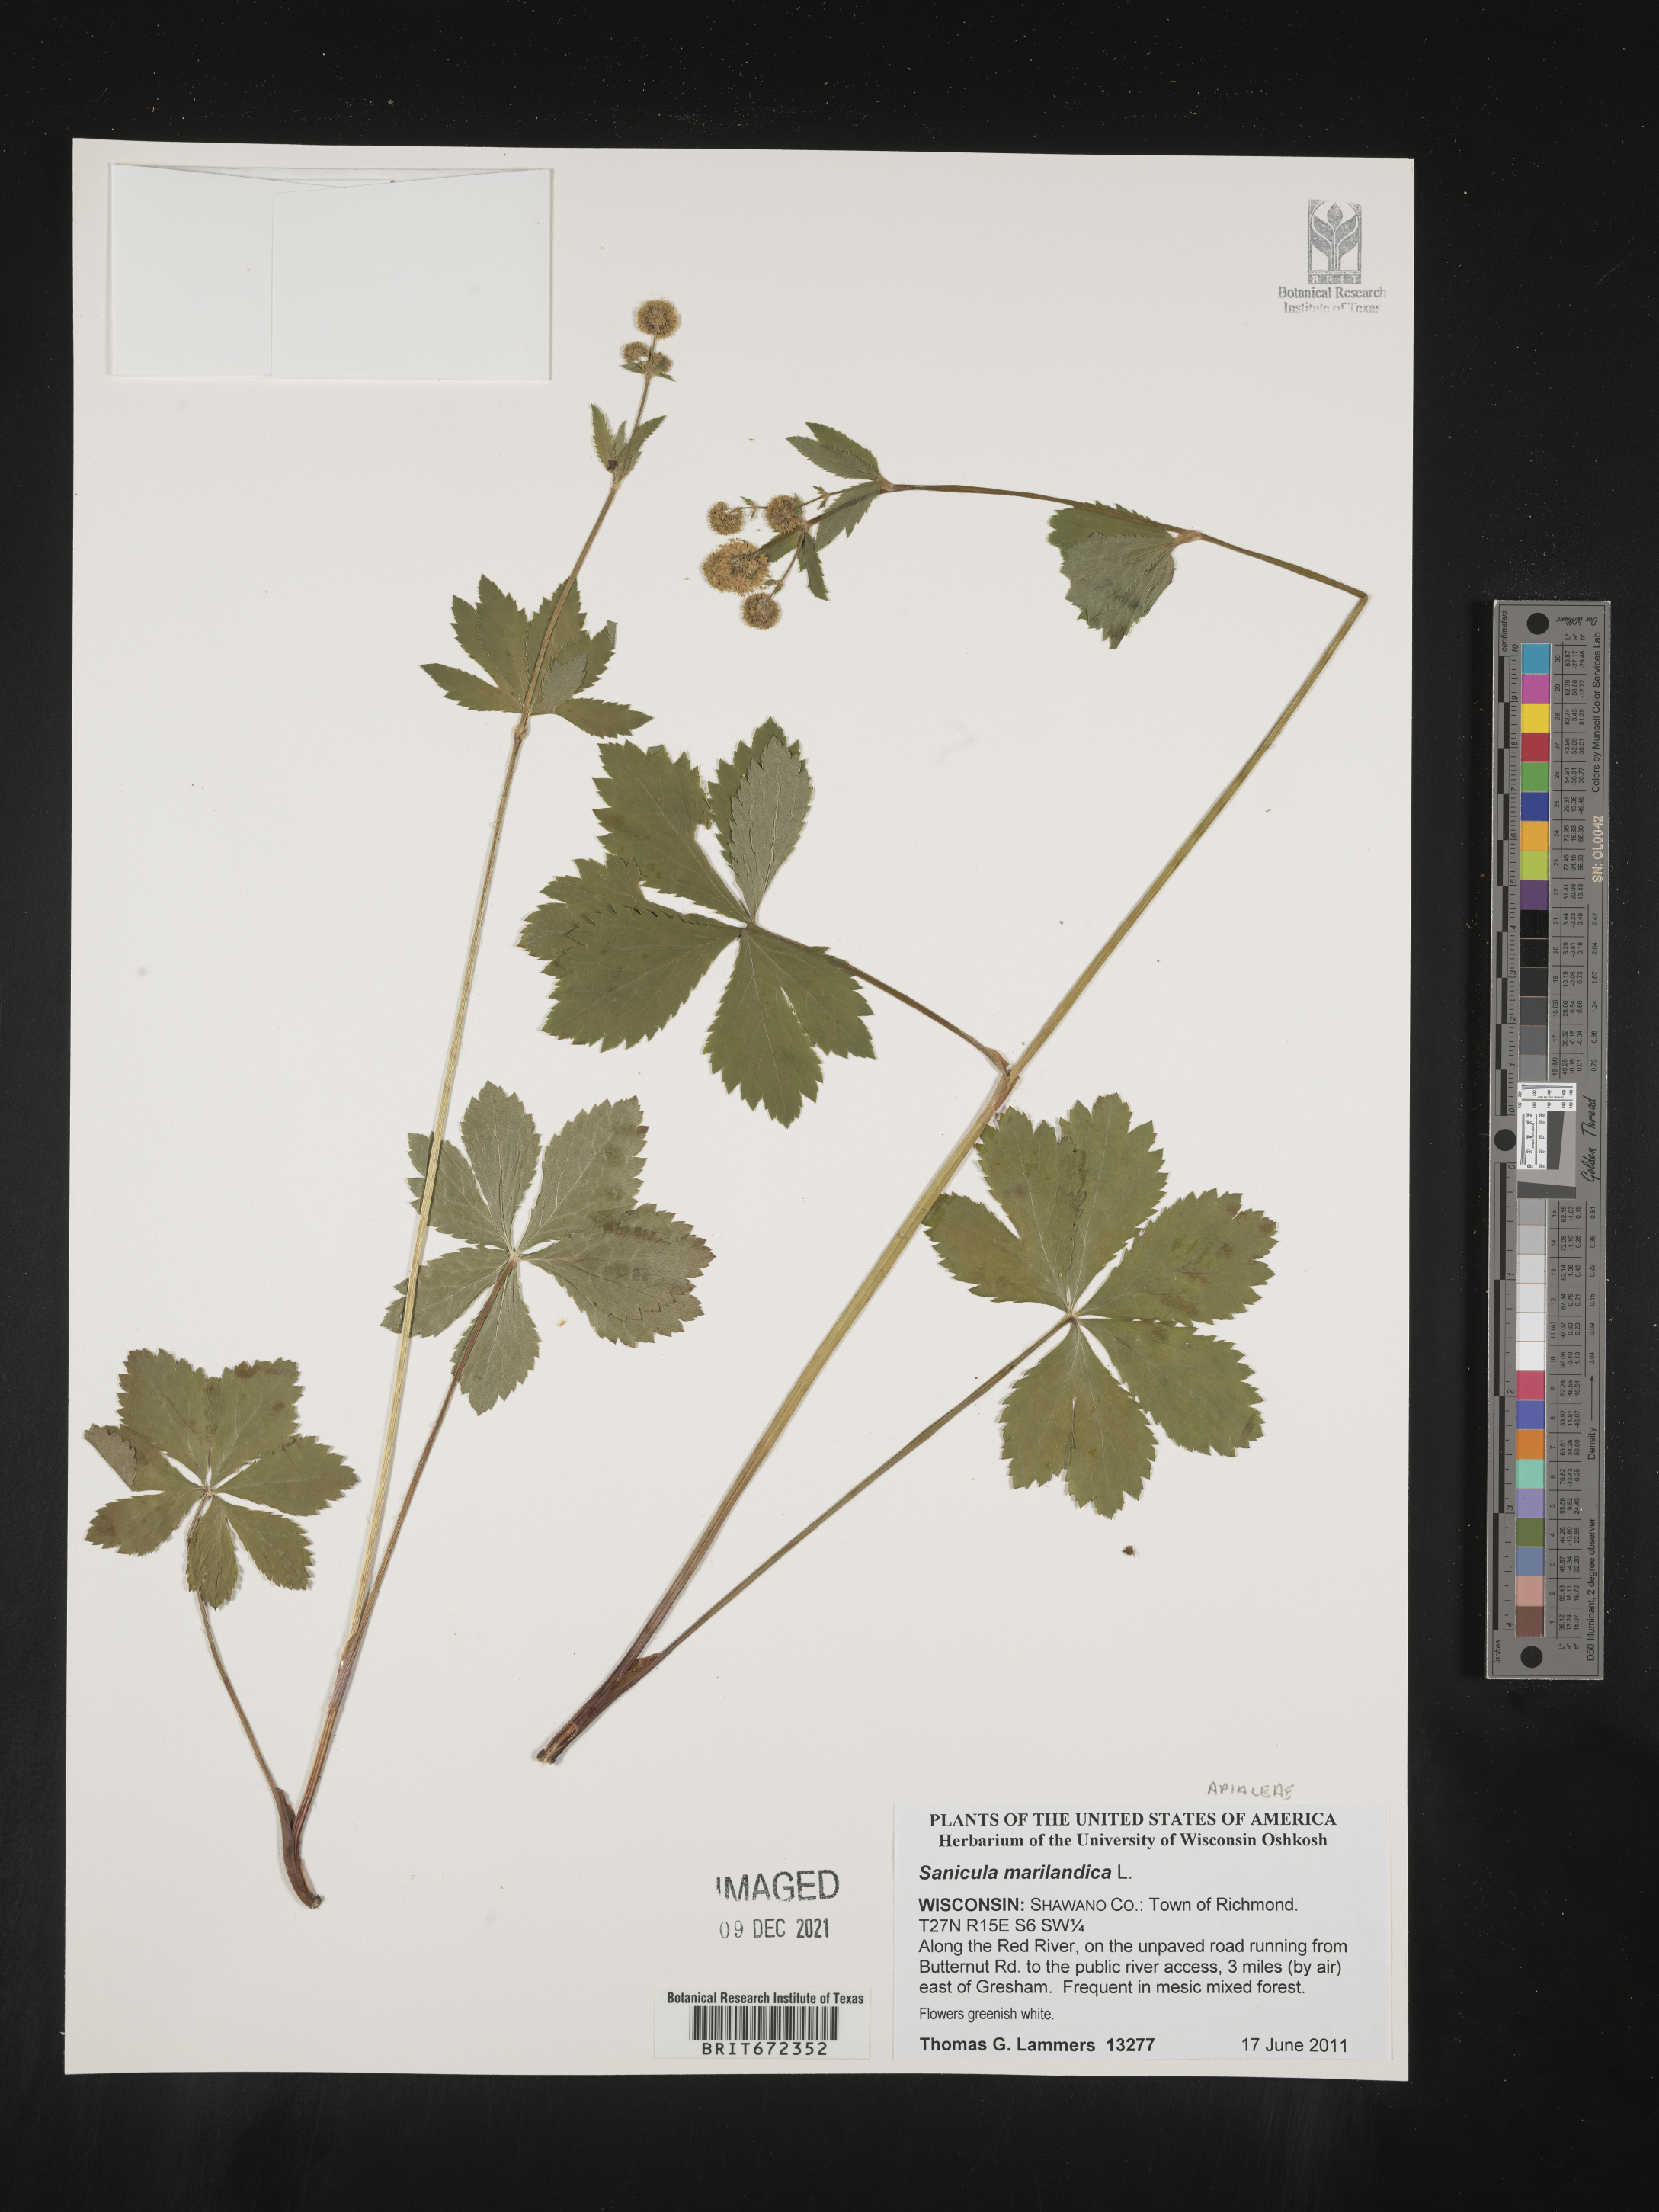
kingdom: Plantae
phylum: Tracheophyta
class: Magnoliopsida
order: Apiales
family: Apiaceae
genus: Sanicula
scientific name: Sanicula marilandica
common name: Black snakeroot
